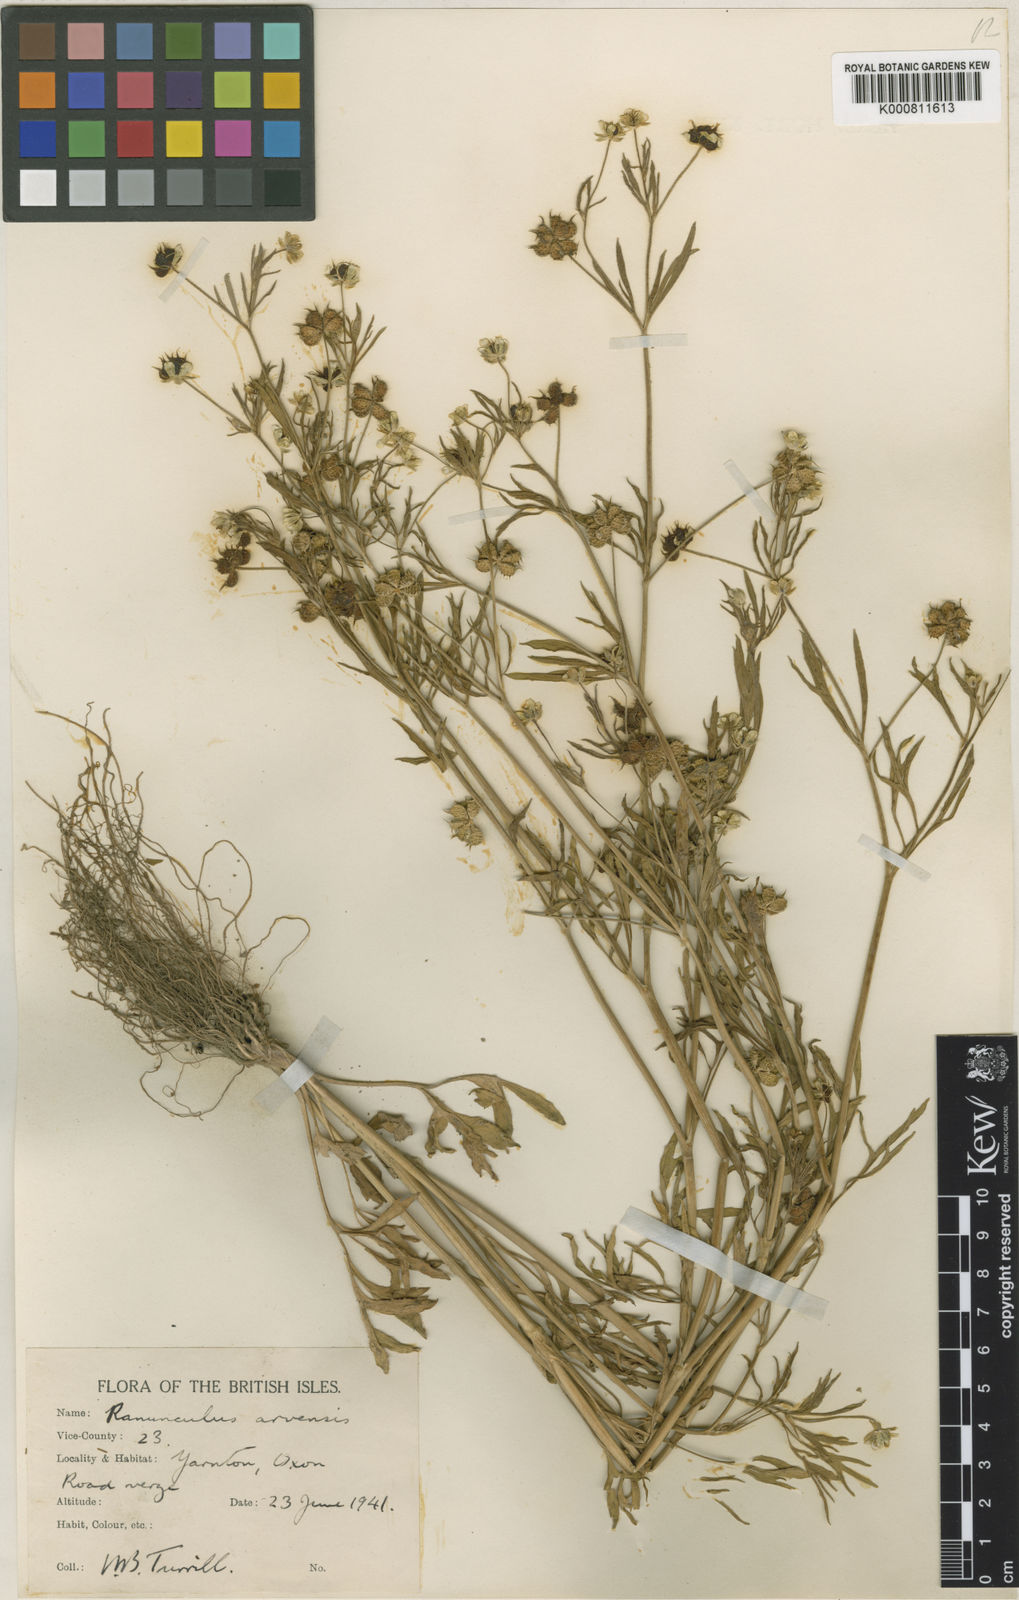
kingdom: Plantae
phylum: Tracheophyta
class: Magnoliopsida
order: Ranunculales
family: Ranunculaceae
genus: Ranunculus
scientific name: Ranunculus arvensis
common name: Corn buttercup
